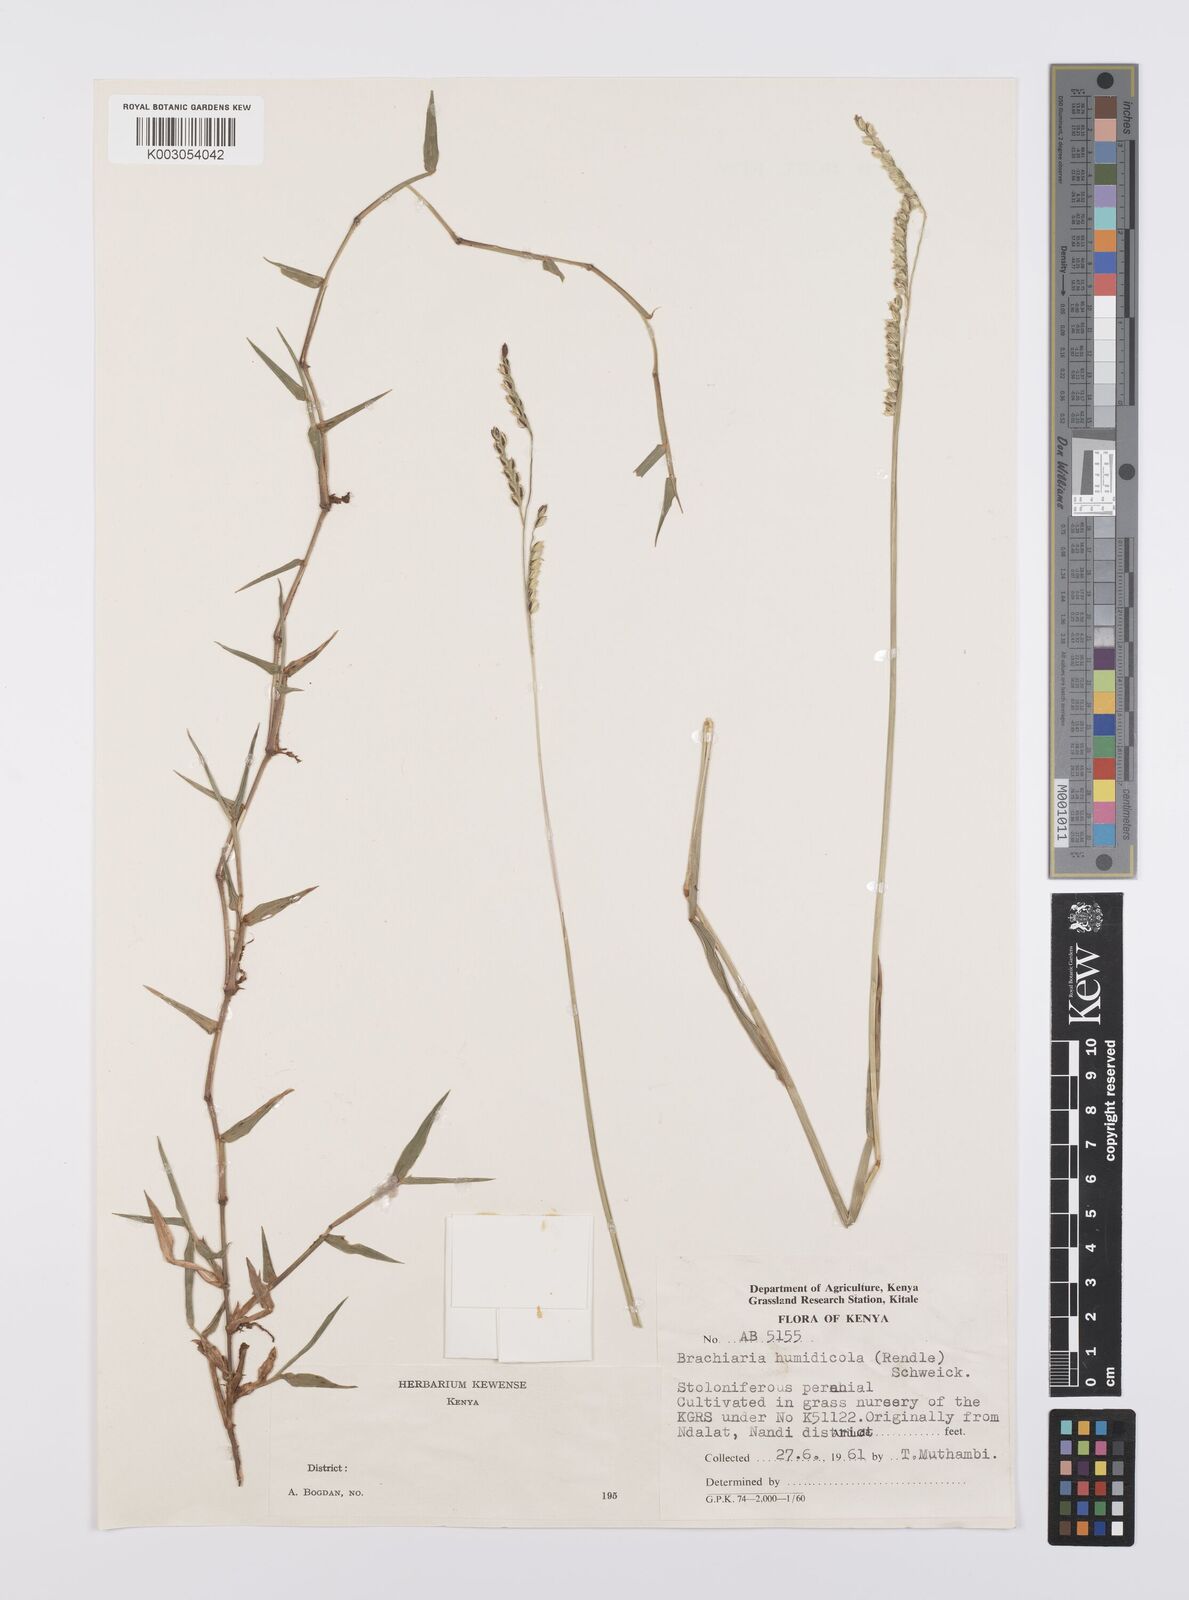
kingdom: Plantae
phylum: Tracheophyta
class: Liliopsida
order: Poales
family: Poaceae
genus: Urochloa
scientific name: Urochloa dictyoneura
